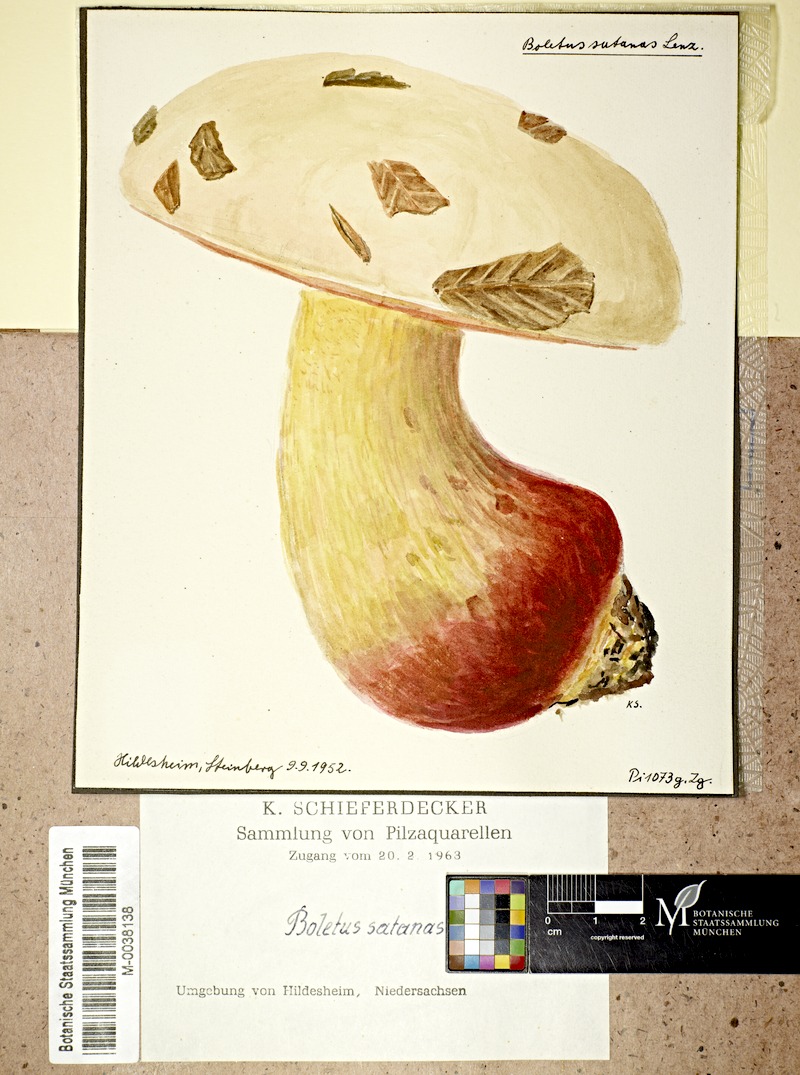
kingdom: Fungi
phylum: Basidiomycota
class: Agaricomycetes
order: Boletales
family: Boletaceae
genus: Rubroboletus
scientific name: Rubroboletus satanas
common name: Devil's bolete
